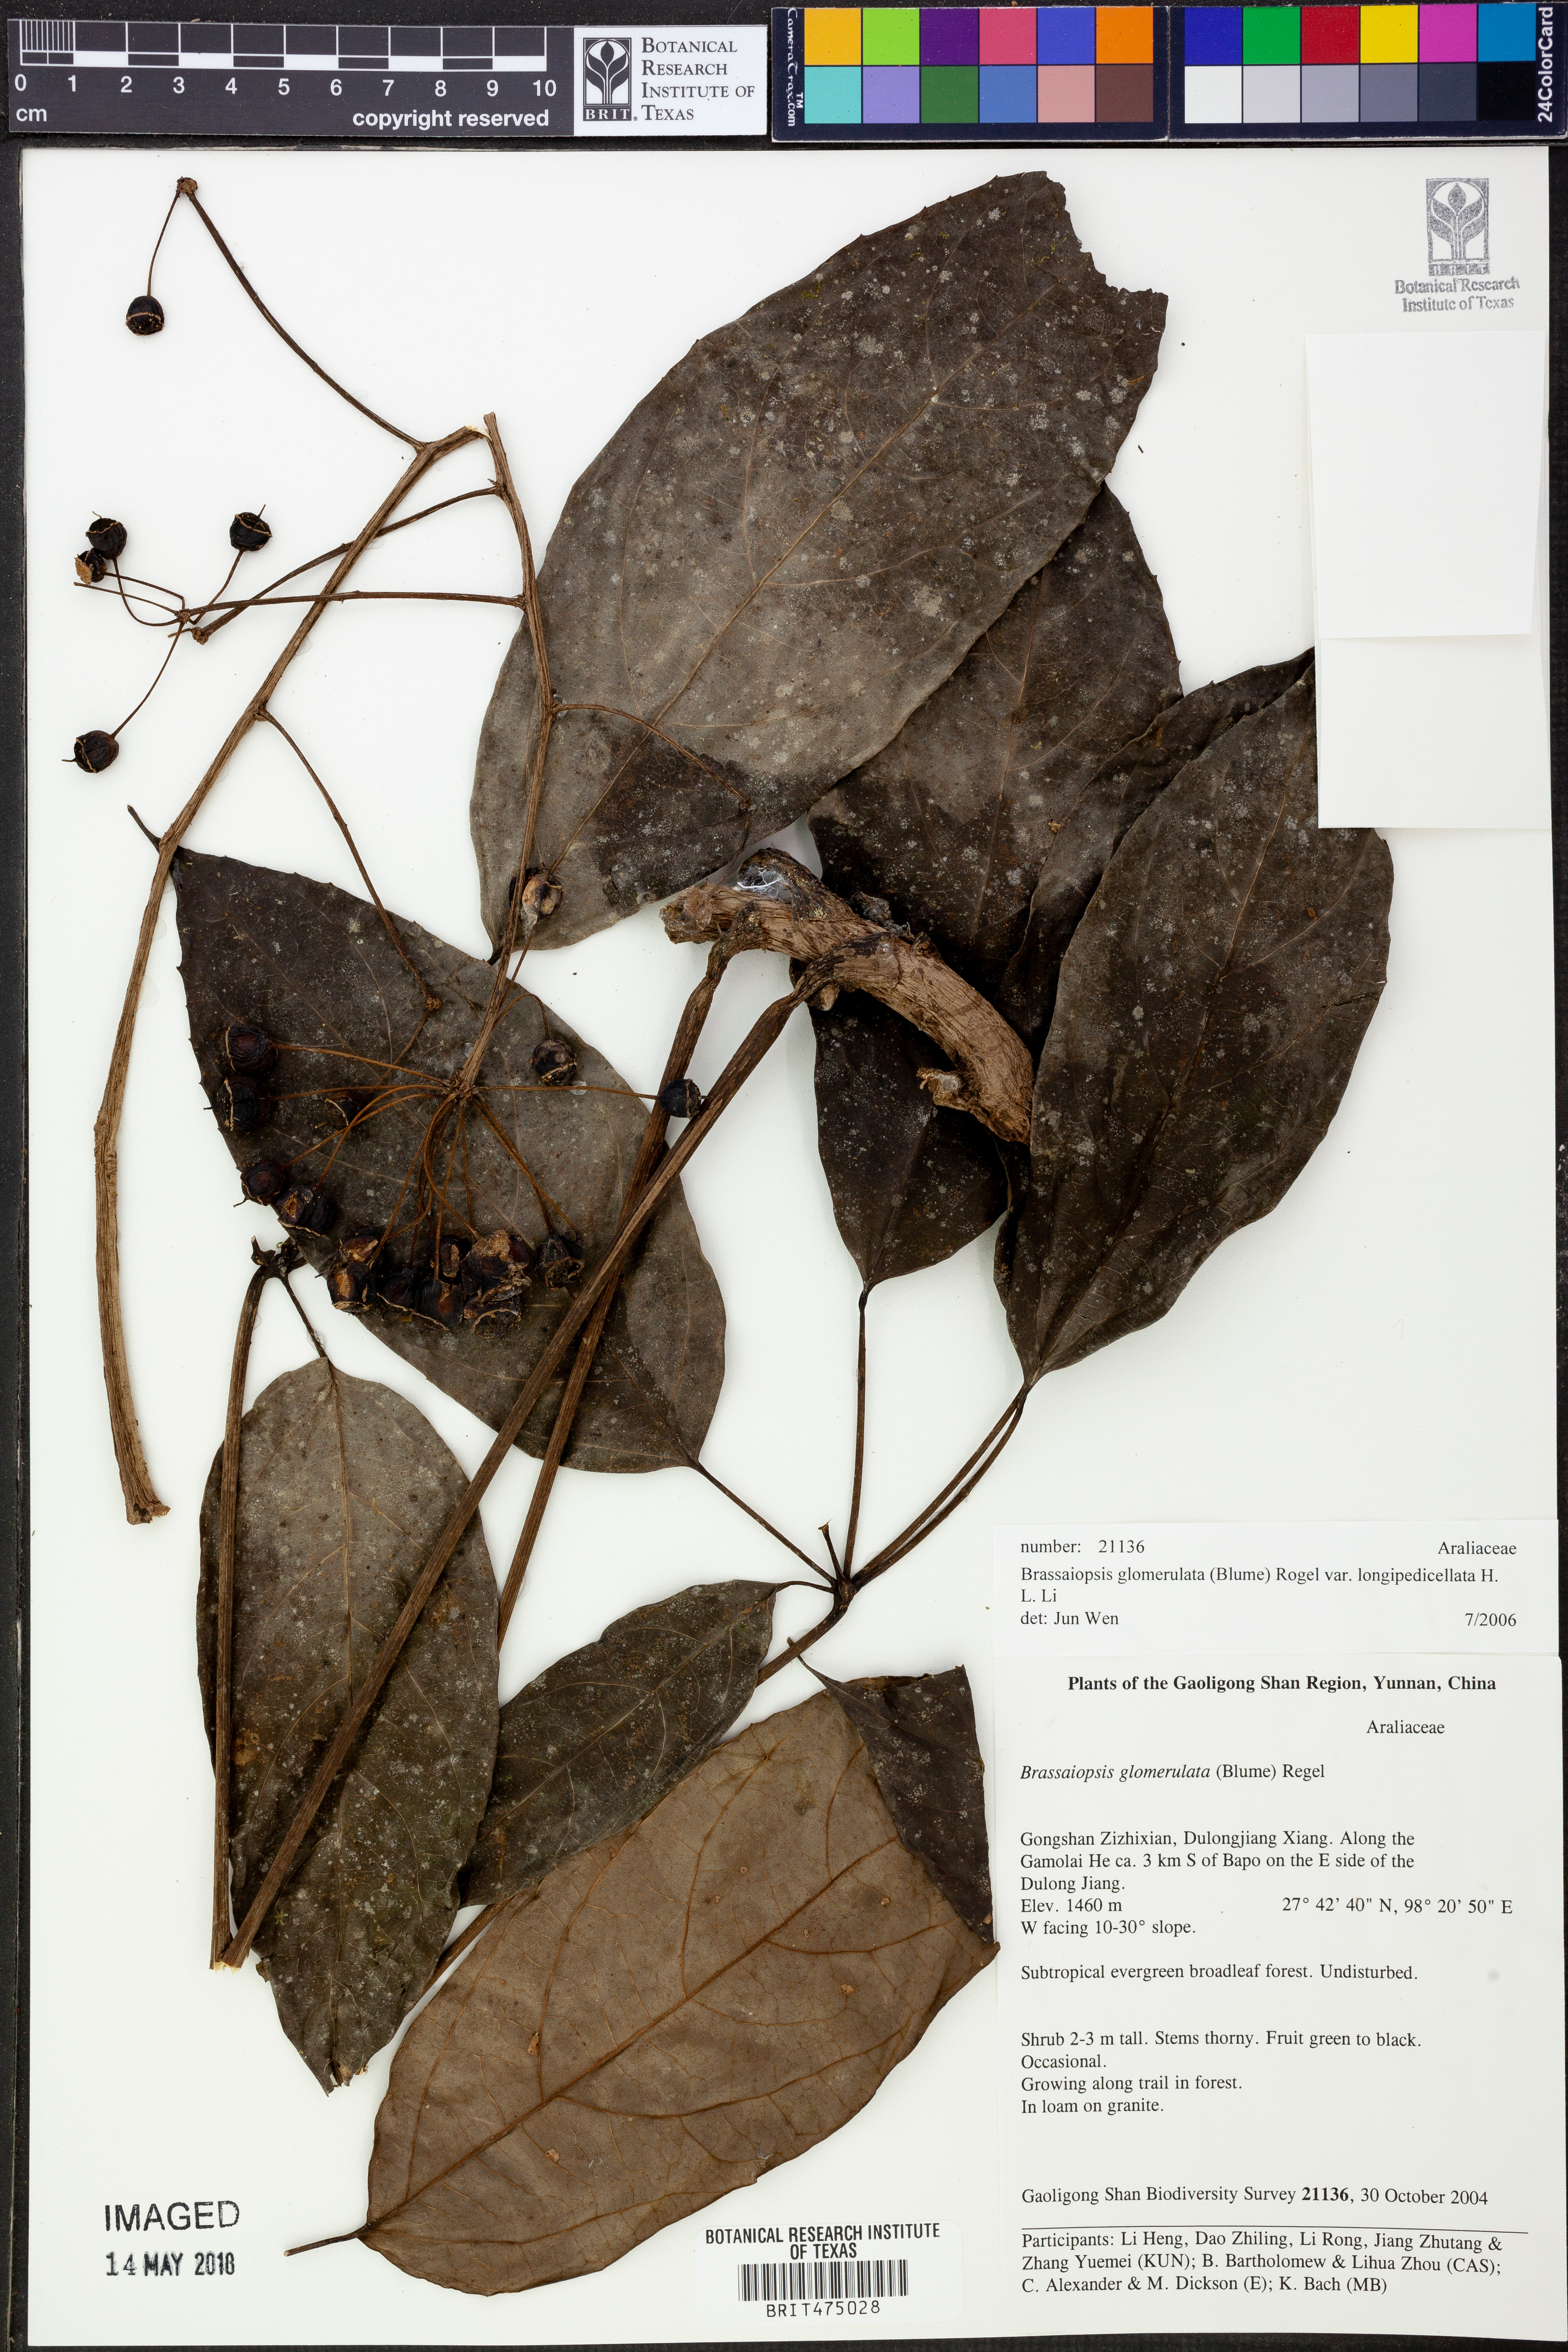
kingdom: Plantae
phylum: Tracheophyta
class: Magnoliopsida
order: Apiales
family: Araliaceae
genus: Brassaiopsis
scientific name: Brassaiopsis glomerulata
